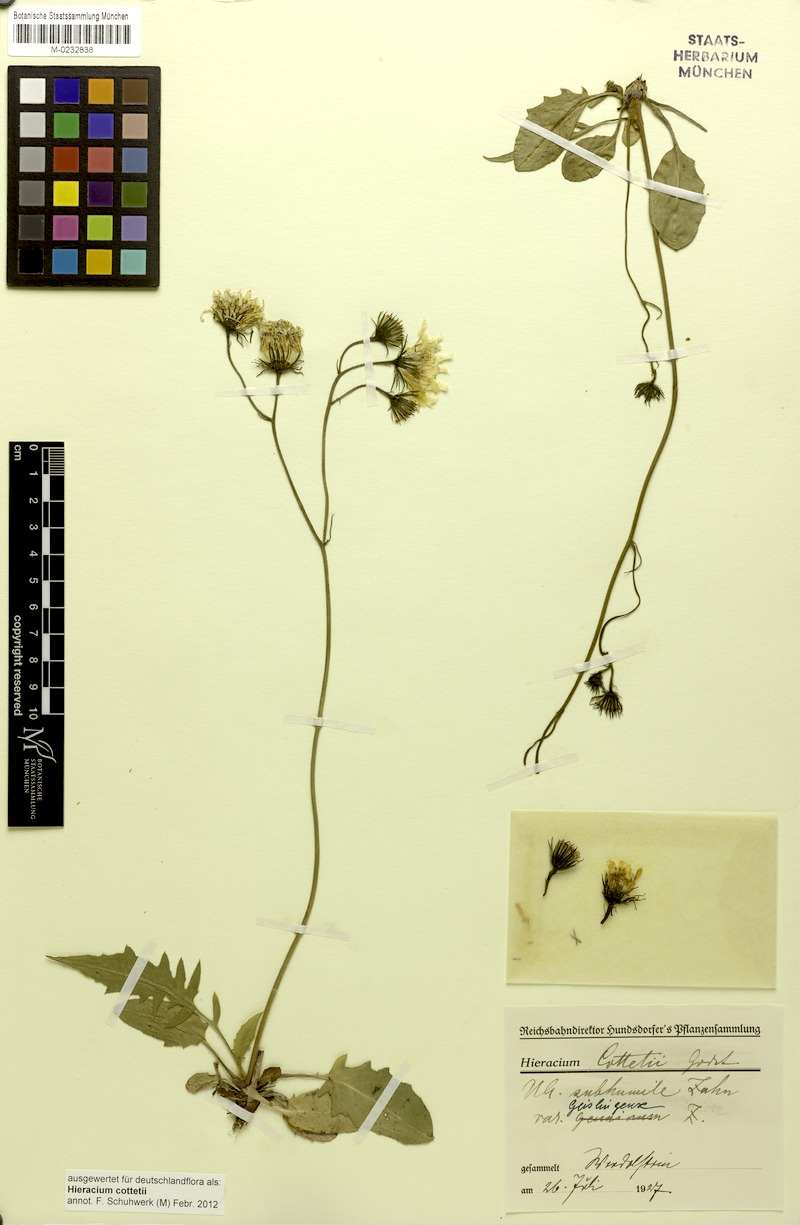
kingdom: Plantae
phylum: Tracheophyta
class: Magnoliopsida
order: Asterales
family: Asteraceae
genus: Hieracium
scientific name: Hieracium cottetii
